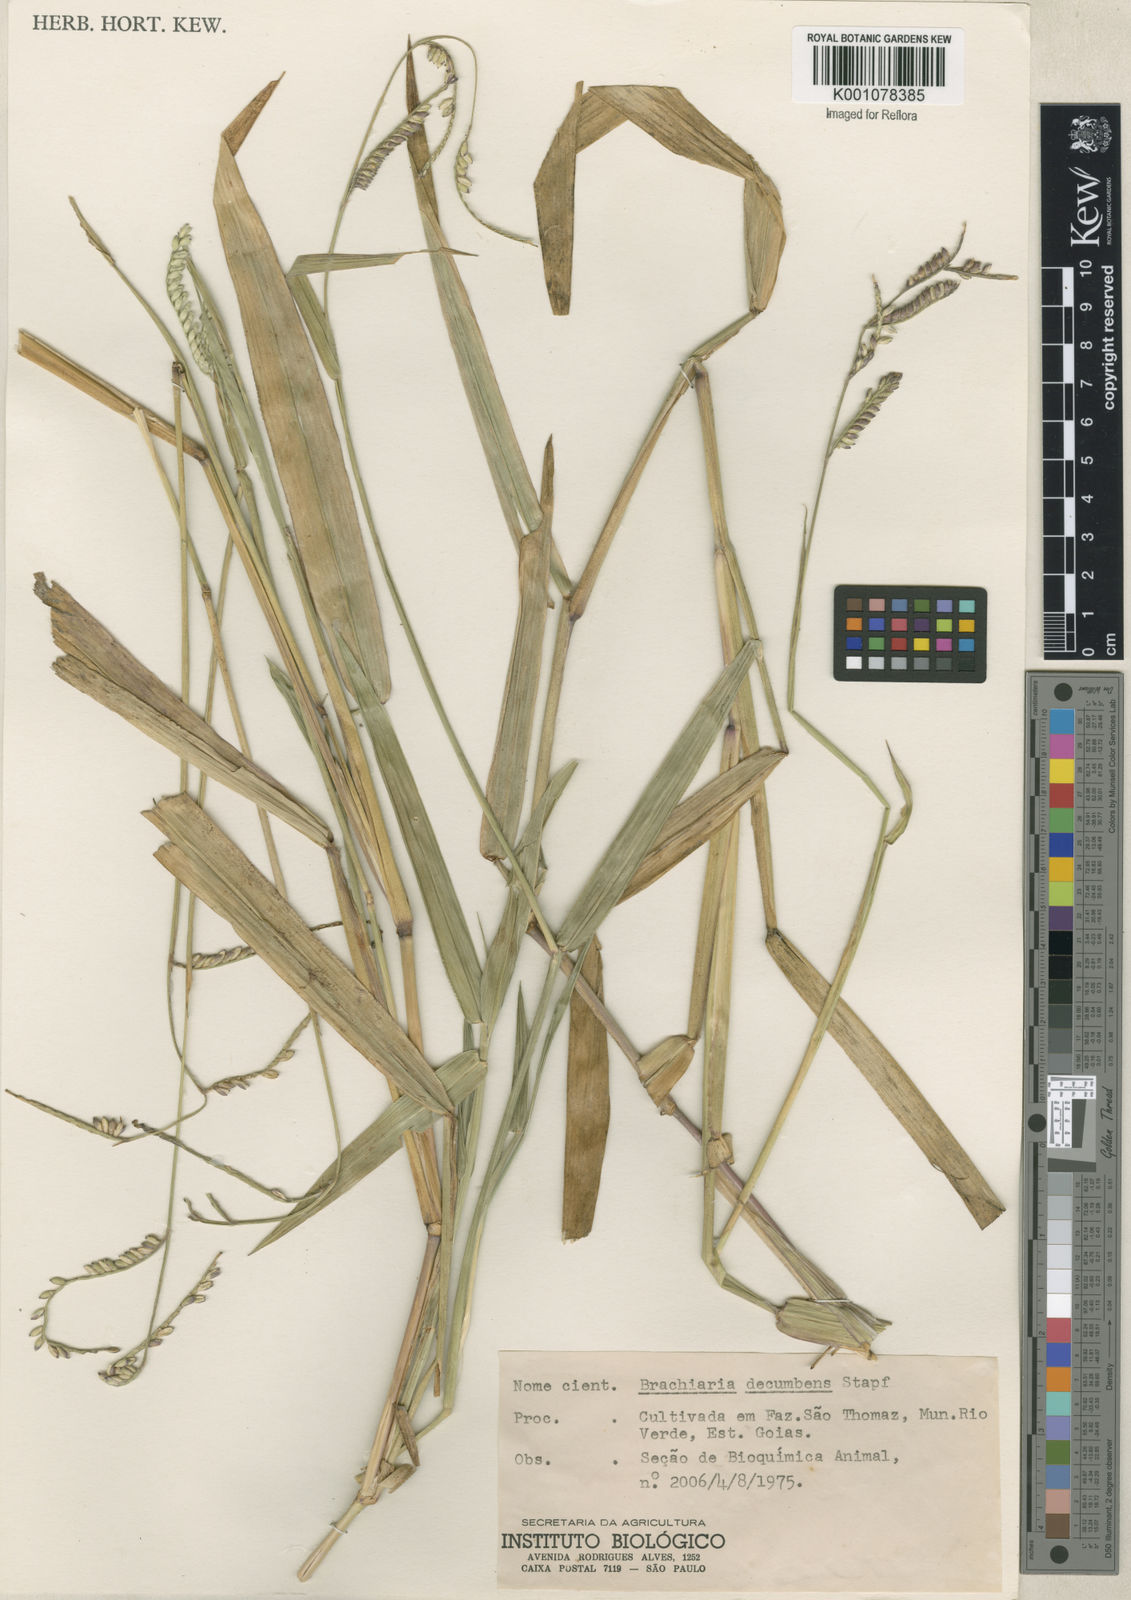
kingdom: Plantae
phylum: Tracheophyta
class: Liliopsida
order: Poales
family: Poaceae
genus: Urochloa
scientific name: Urochloa brizantha
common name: Palisade signalgrass
